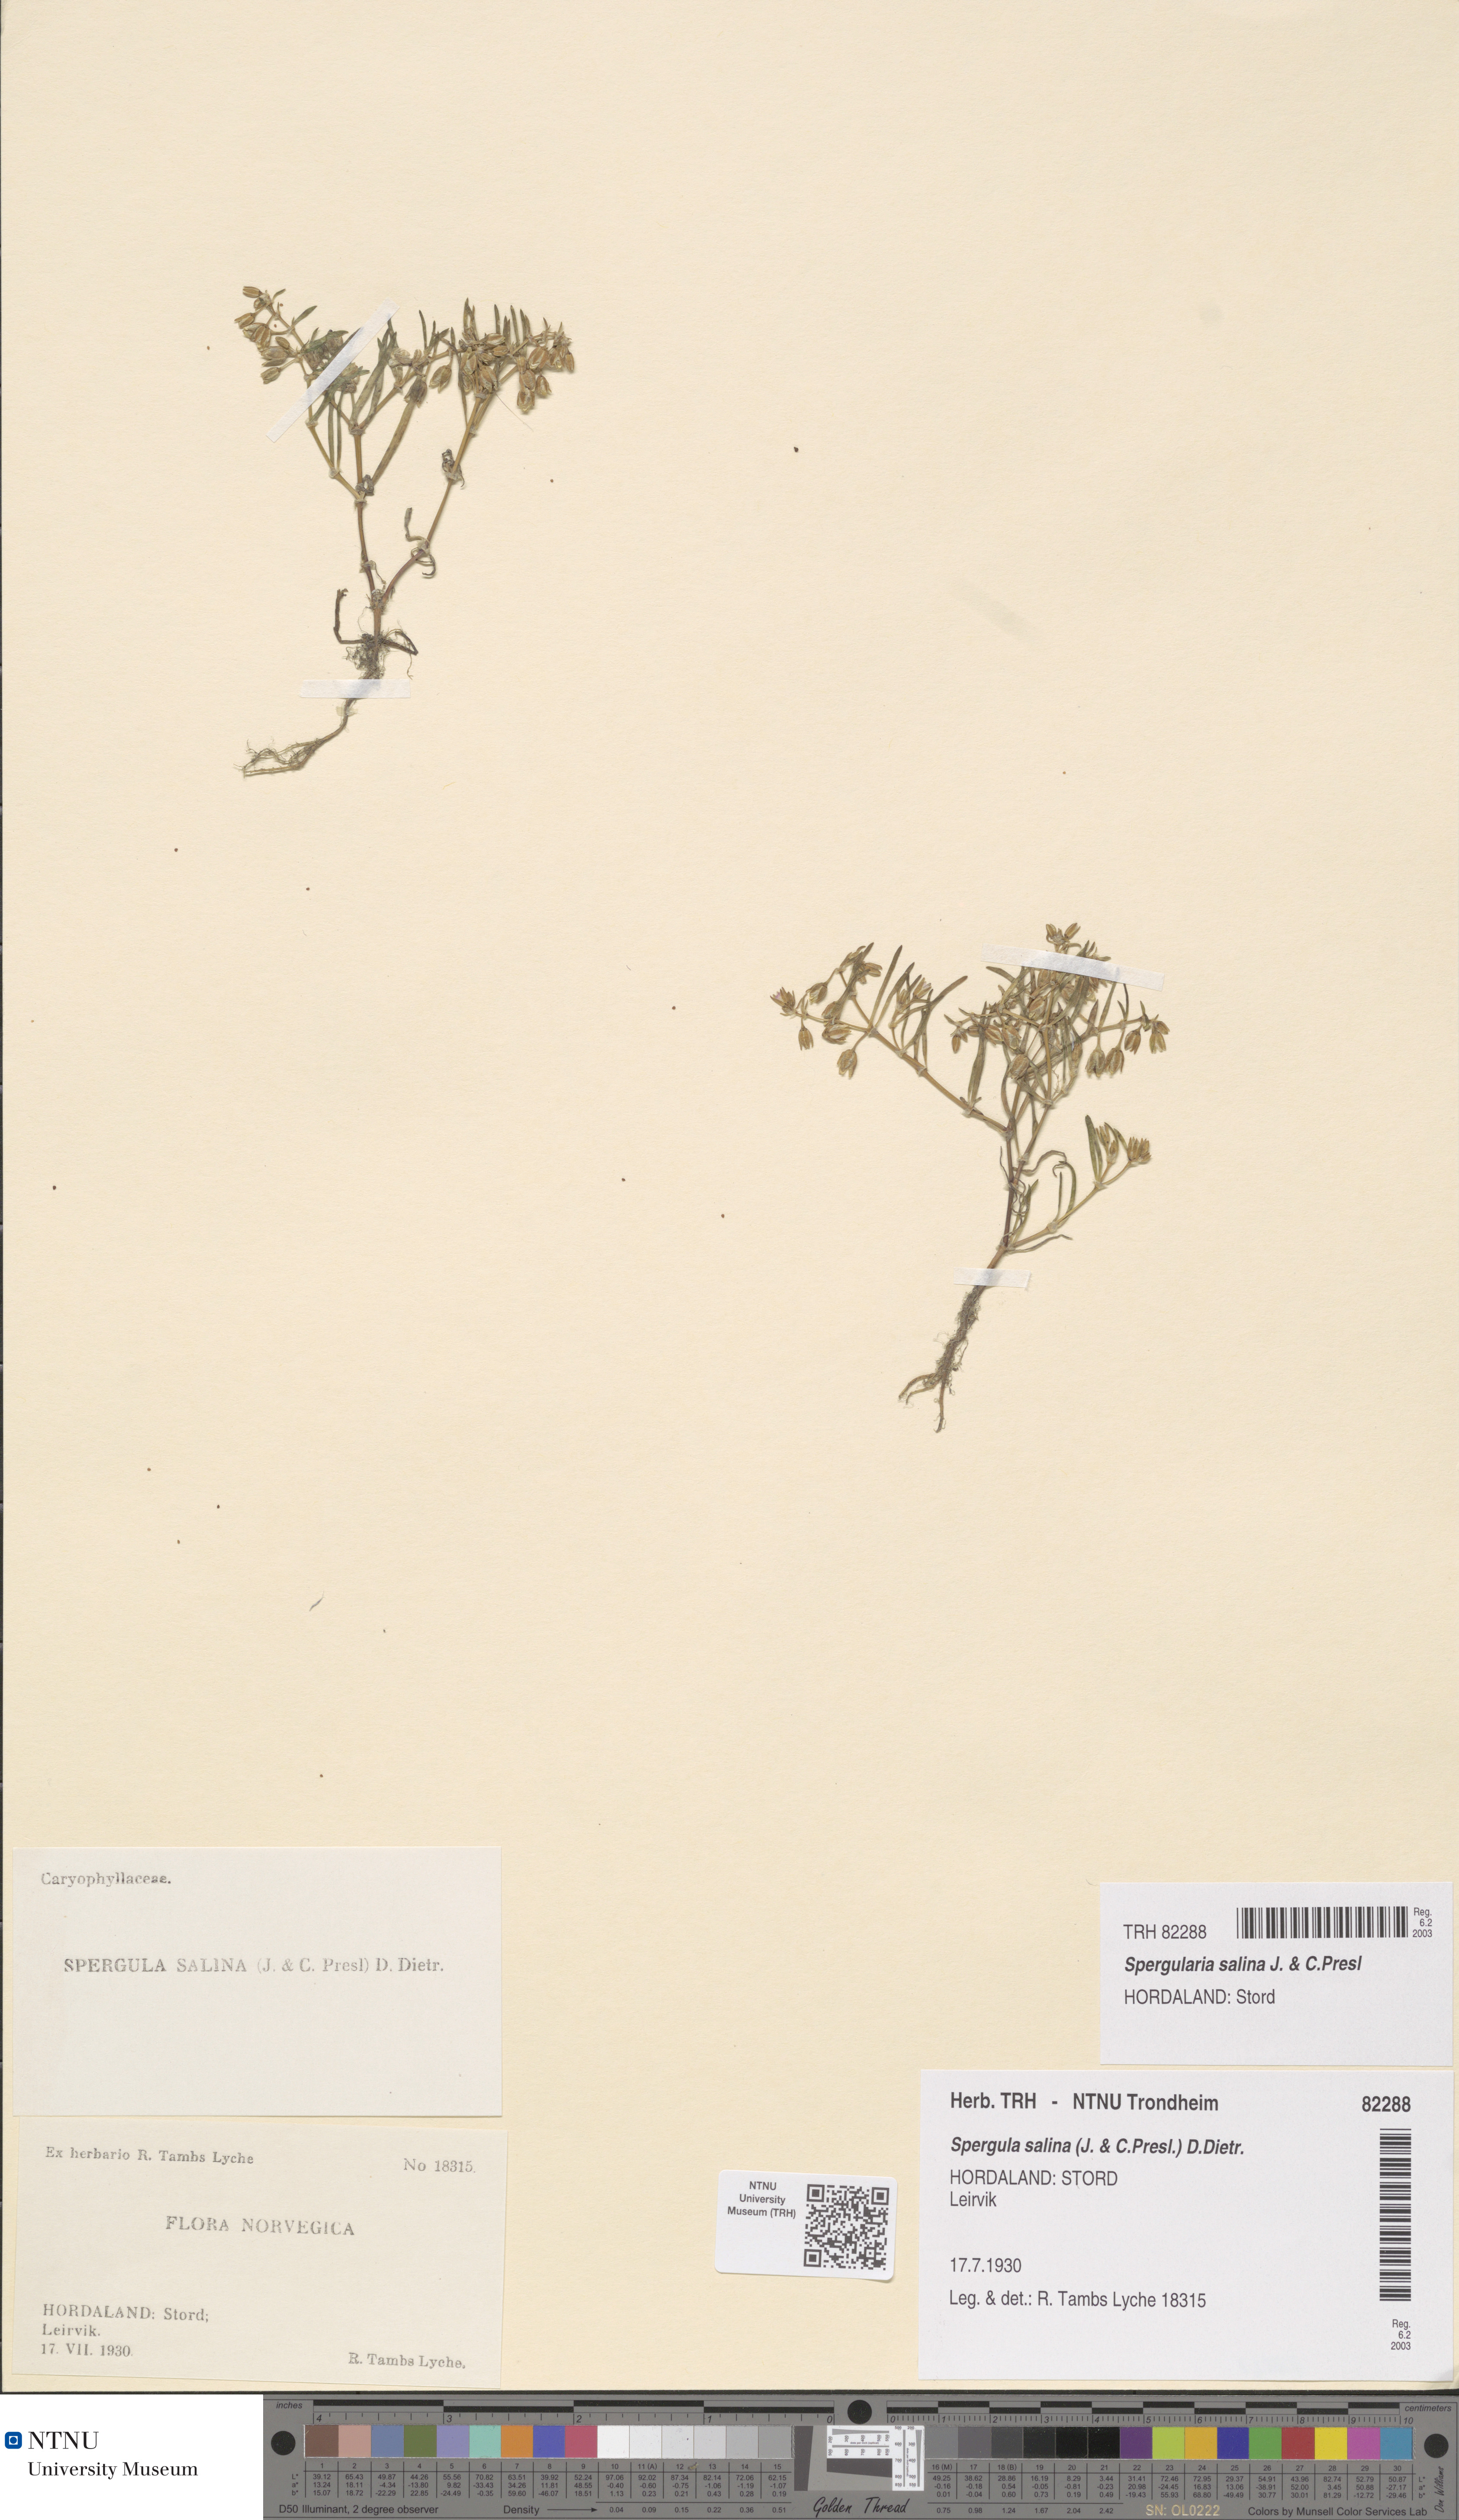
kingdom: Plantae
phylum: Tracheophyta
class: Magnoliopsida
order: Caryophyllales
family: Caryophyllaceae
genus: Spergularia
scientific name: Spergularia marina
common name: Lesser sea-spurrey
